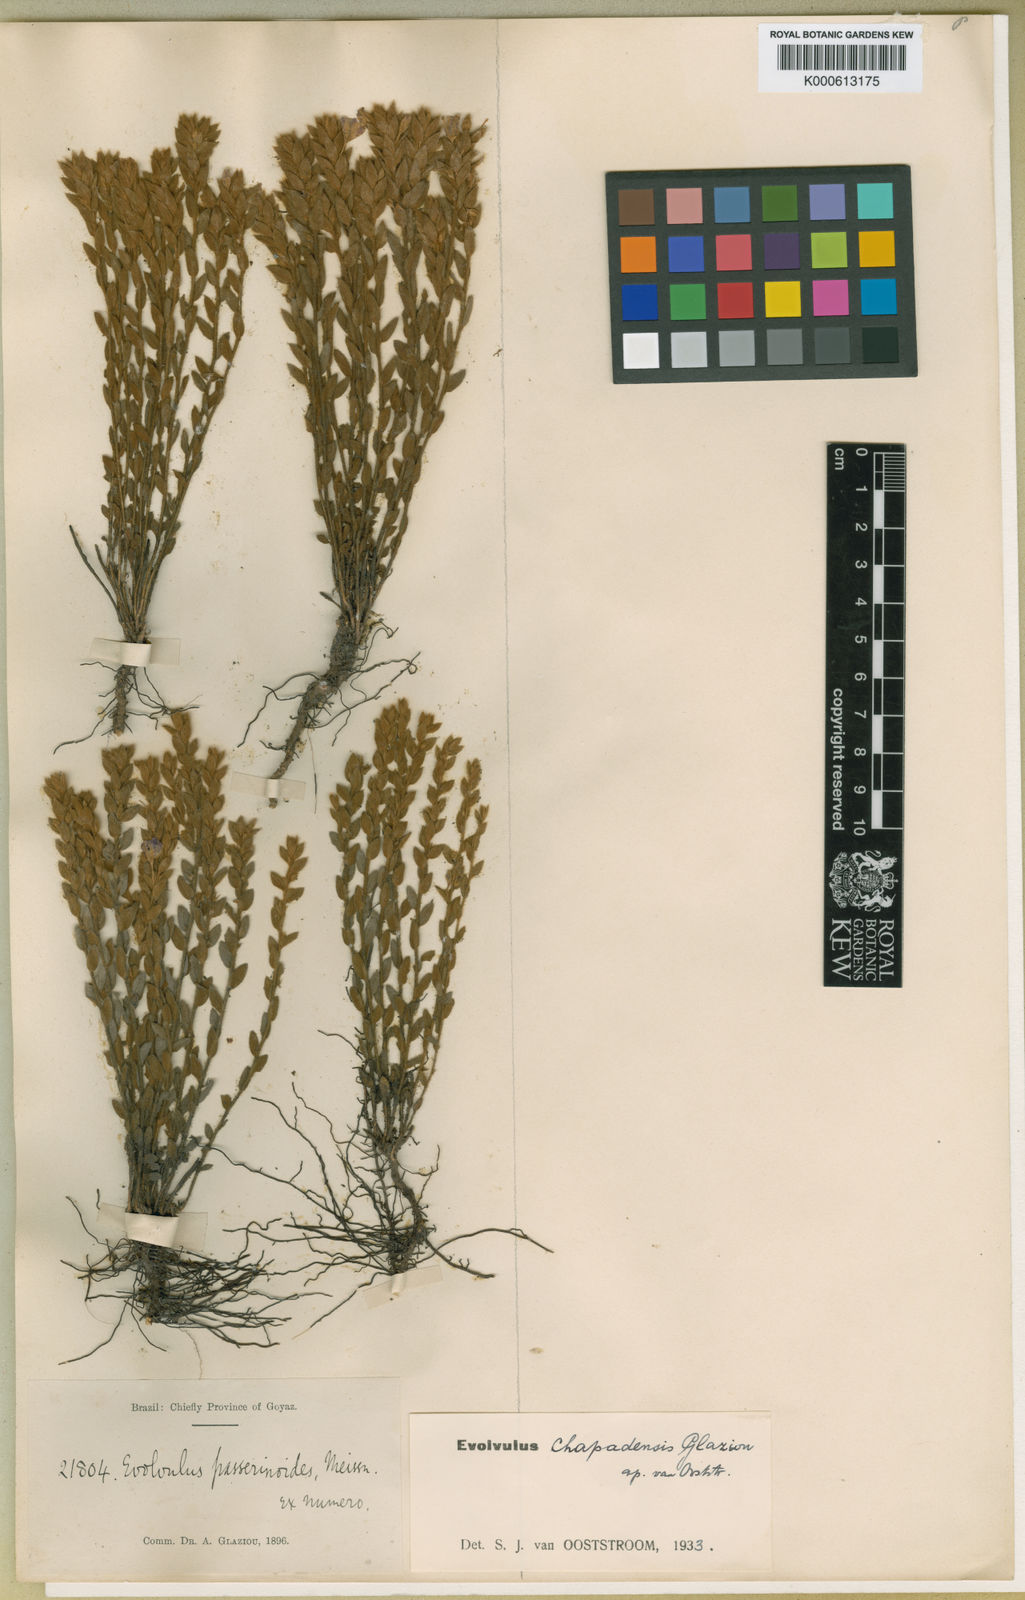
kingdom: Plantae
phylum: Tracheophyta
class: Magnoliopsida
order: Solanales
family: Convolvulaceae
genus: Evolvulus
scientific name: Evolvulus
